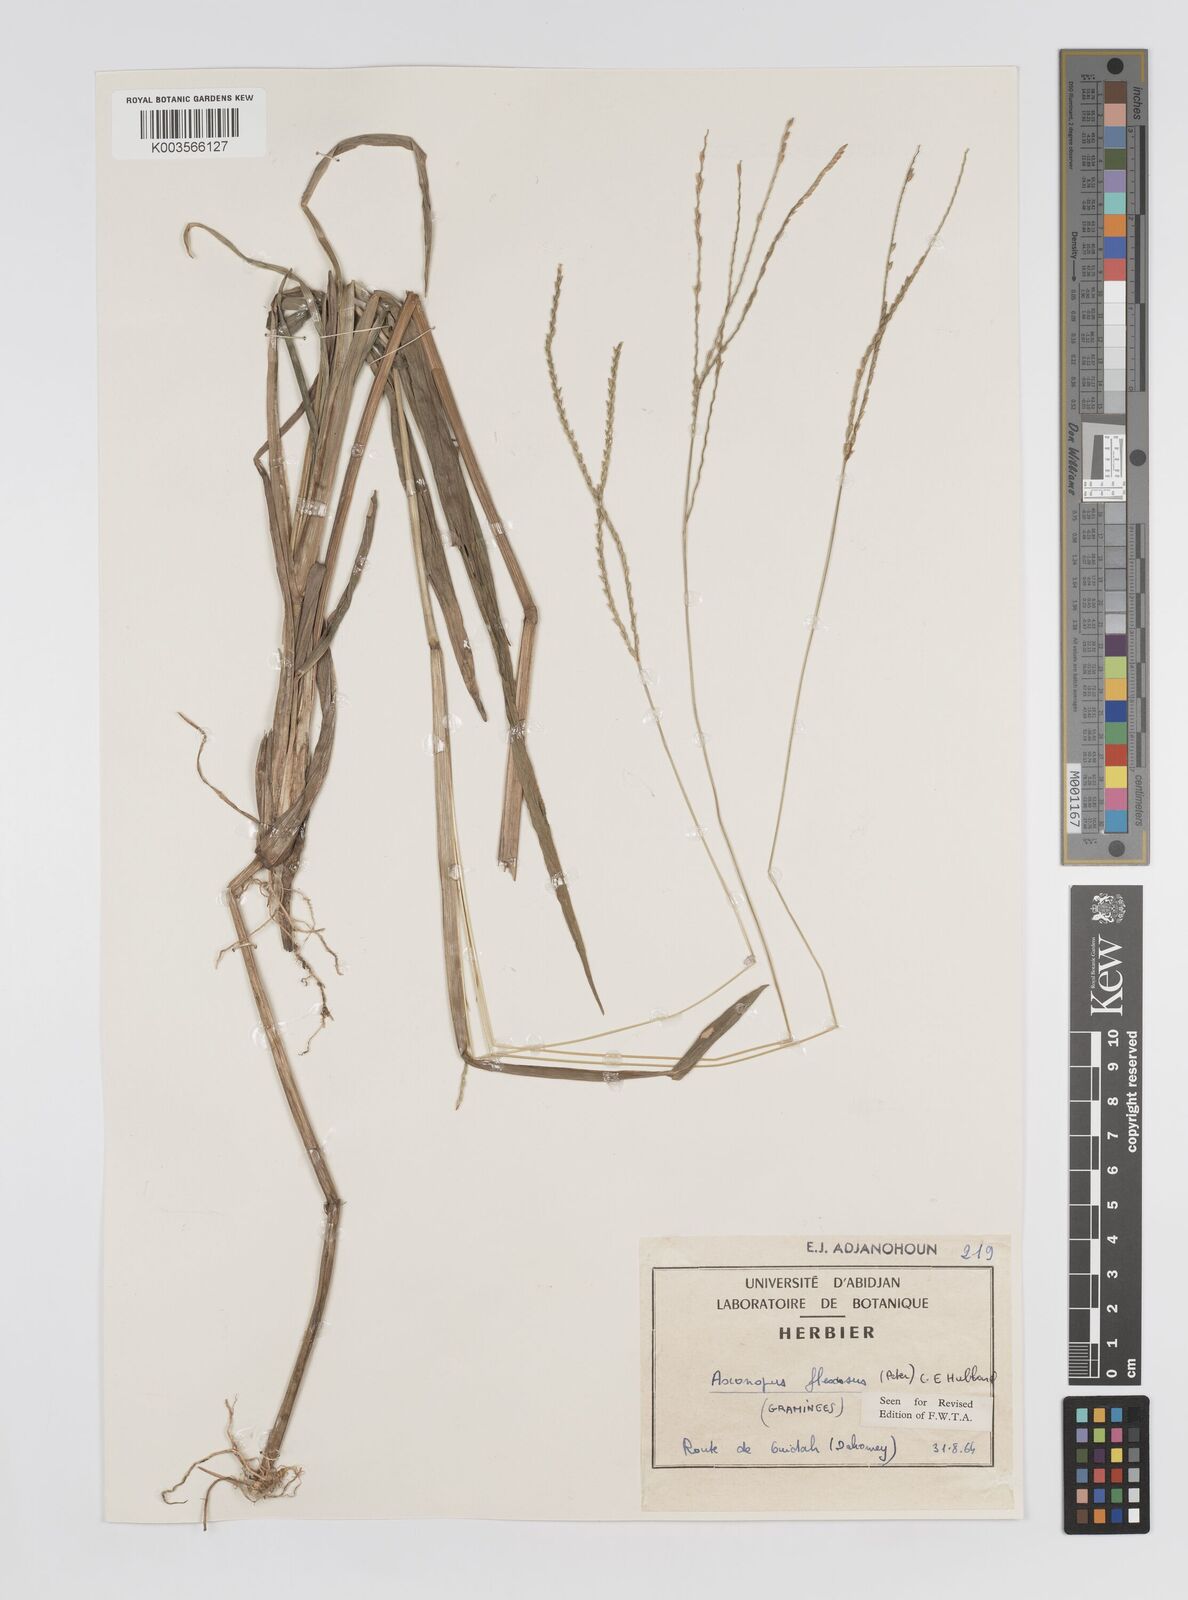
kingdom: Plantae
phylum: Tracheophyta
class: Liliopsida
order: Poales
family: Poaceae
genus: Axonopus
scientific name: Axonopus flexuosus
